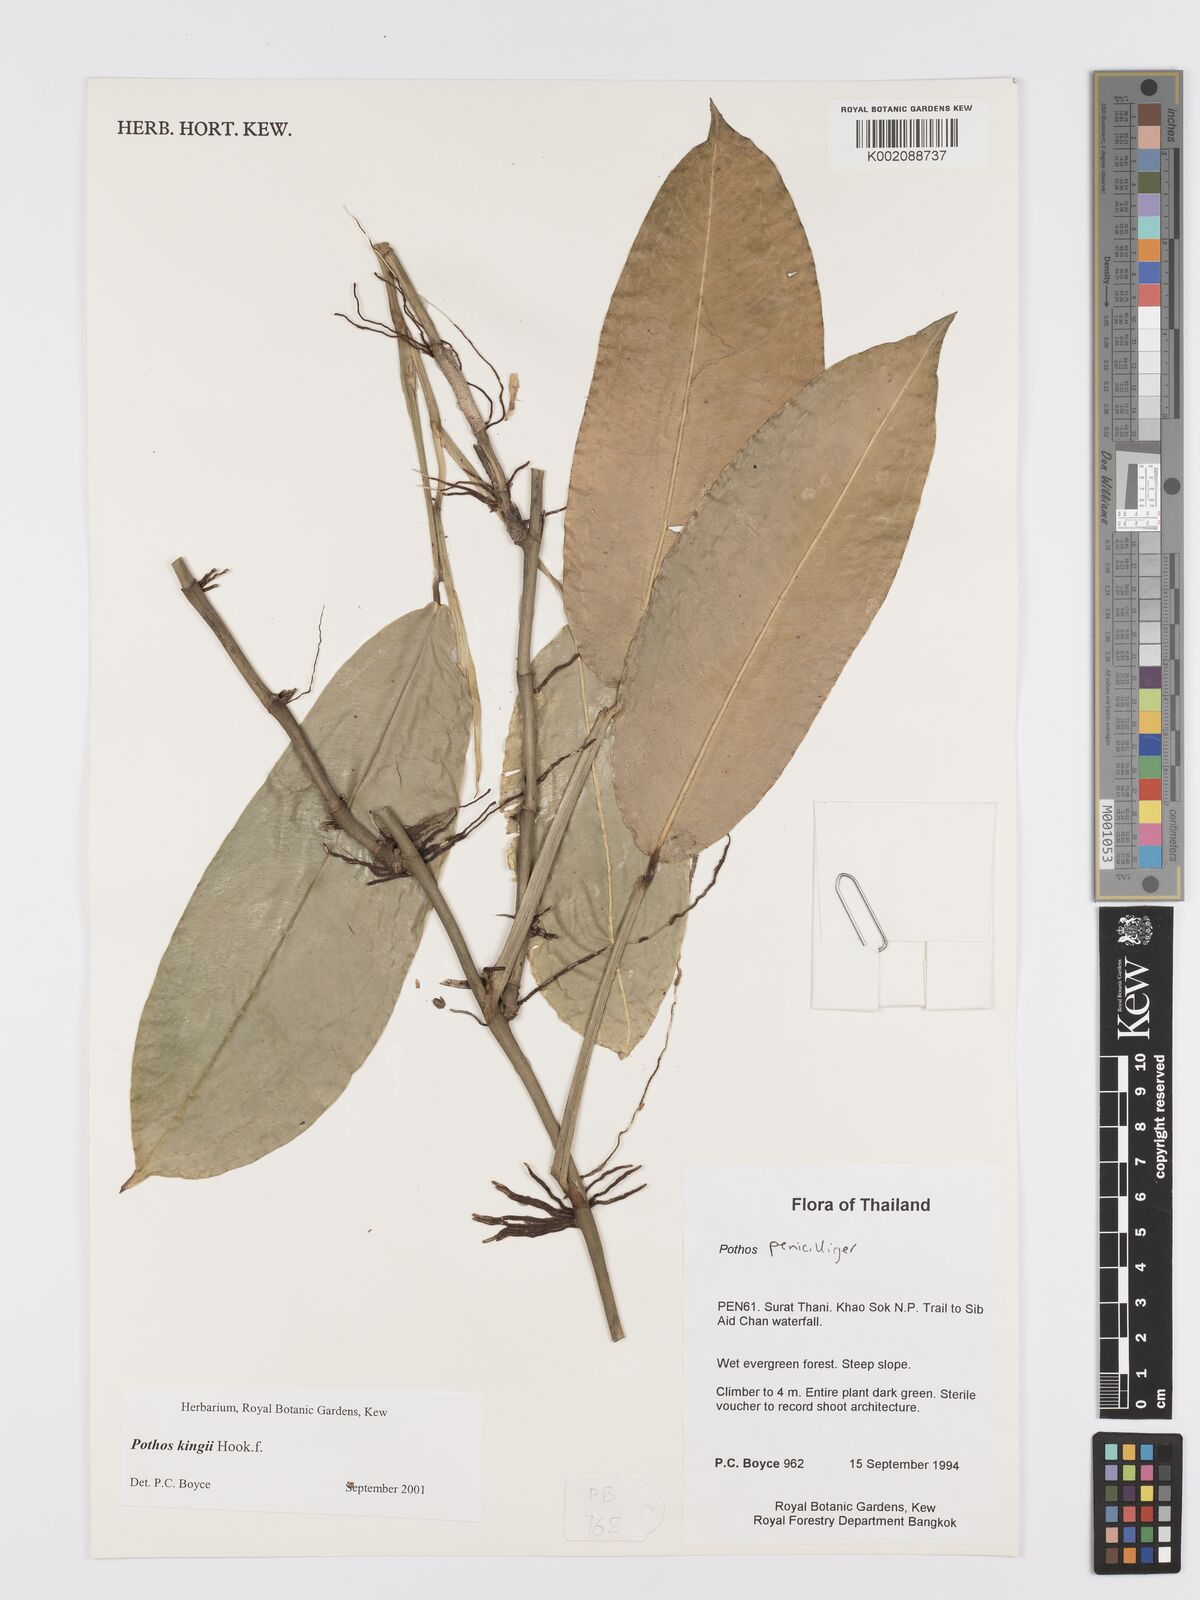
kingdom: Plantae
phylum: Tracheophyta
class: Liliopsida
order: Alismatales
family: Araceae
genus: Pothos
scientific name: Pothos kingii
